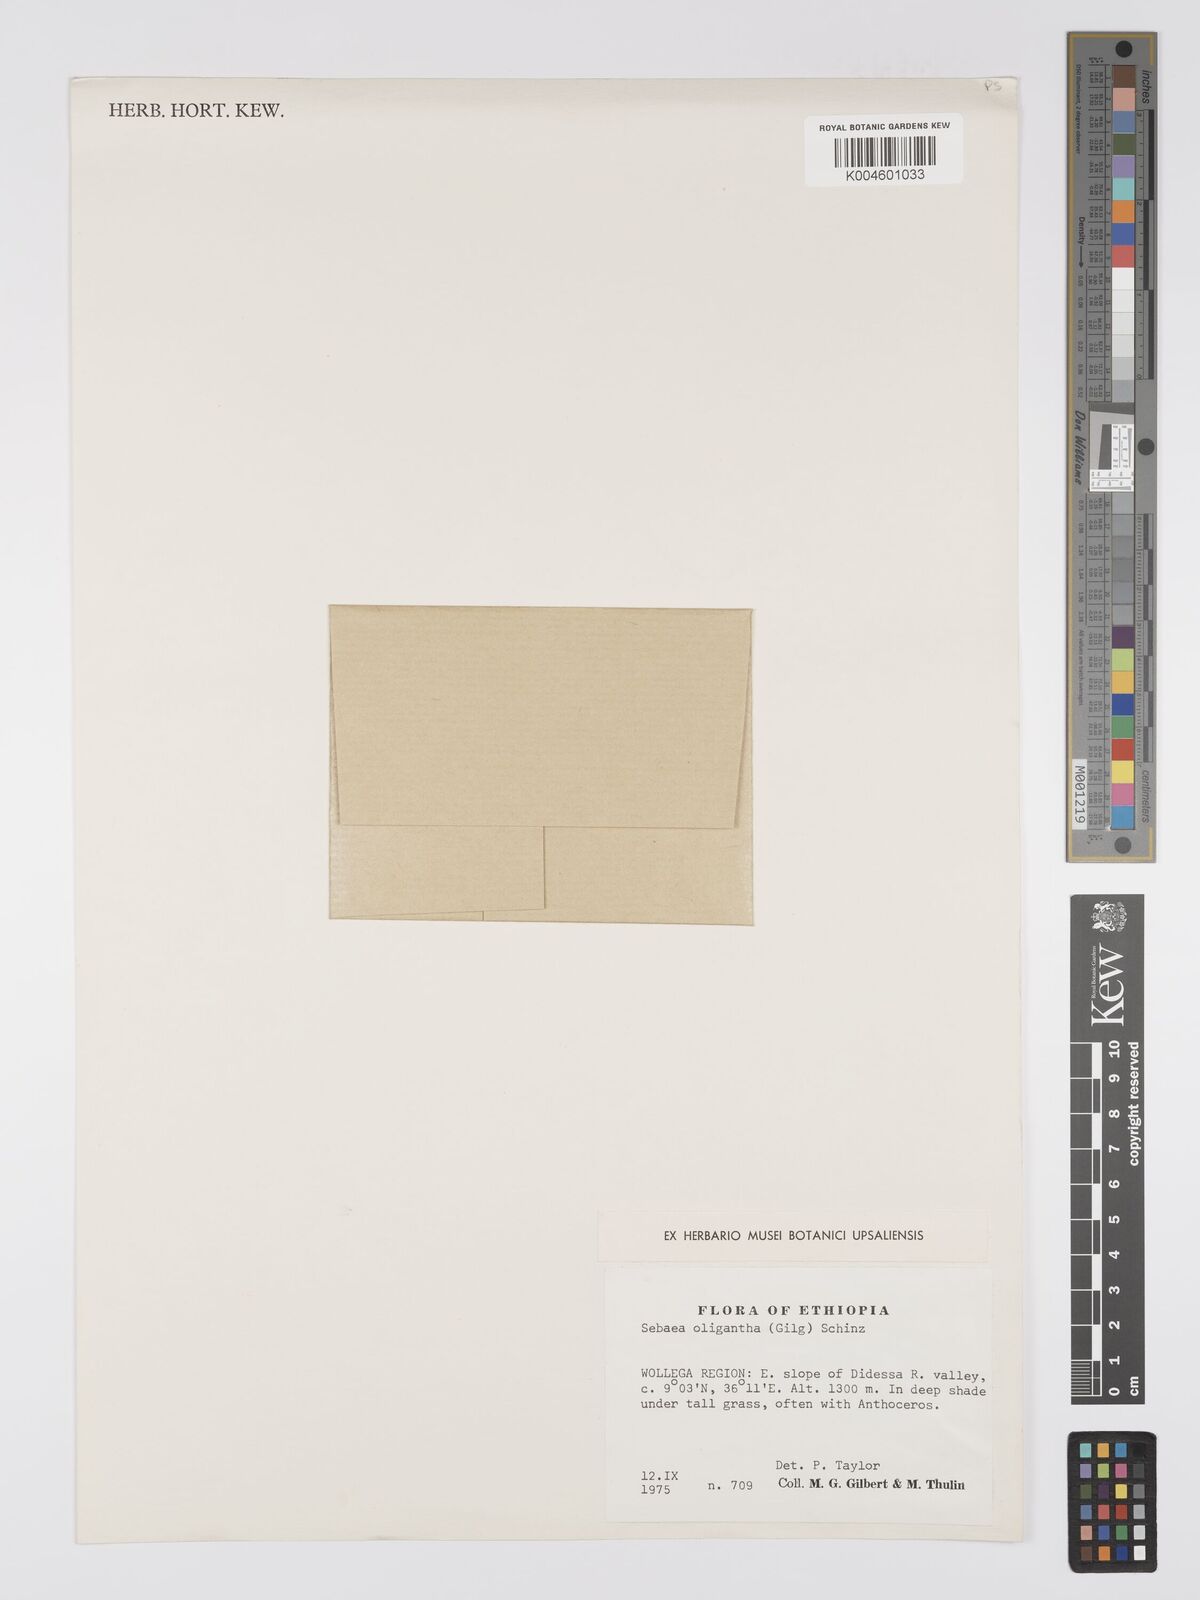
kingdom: Plantae
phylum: Tracheophyta
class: Magnoliopsida
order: Gentianales
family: Gentianaceae
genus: Exochaenium
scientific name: Exochaenium oliganthum
